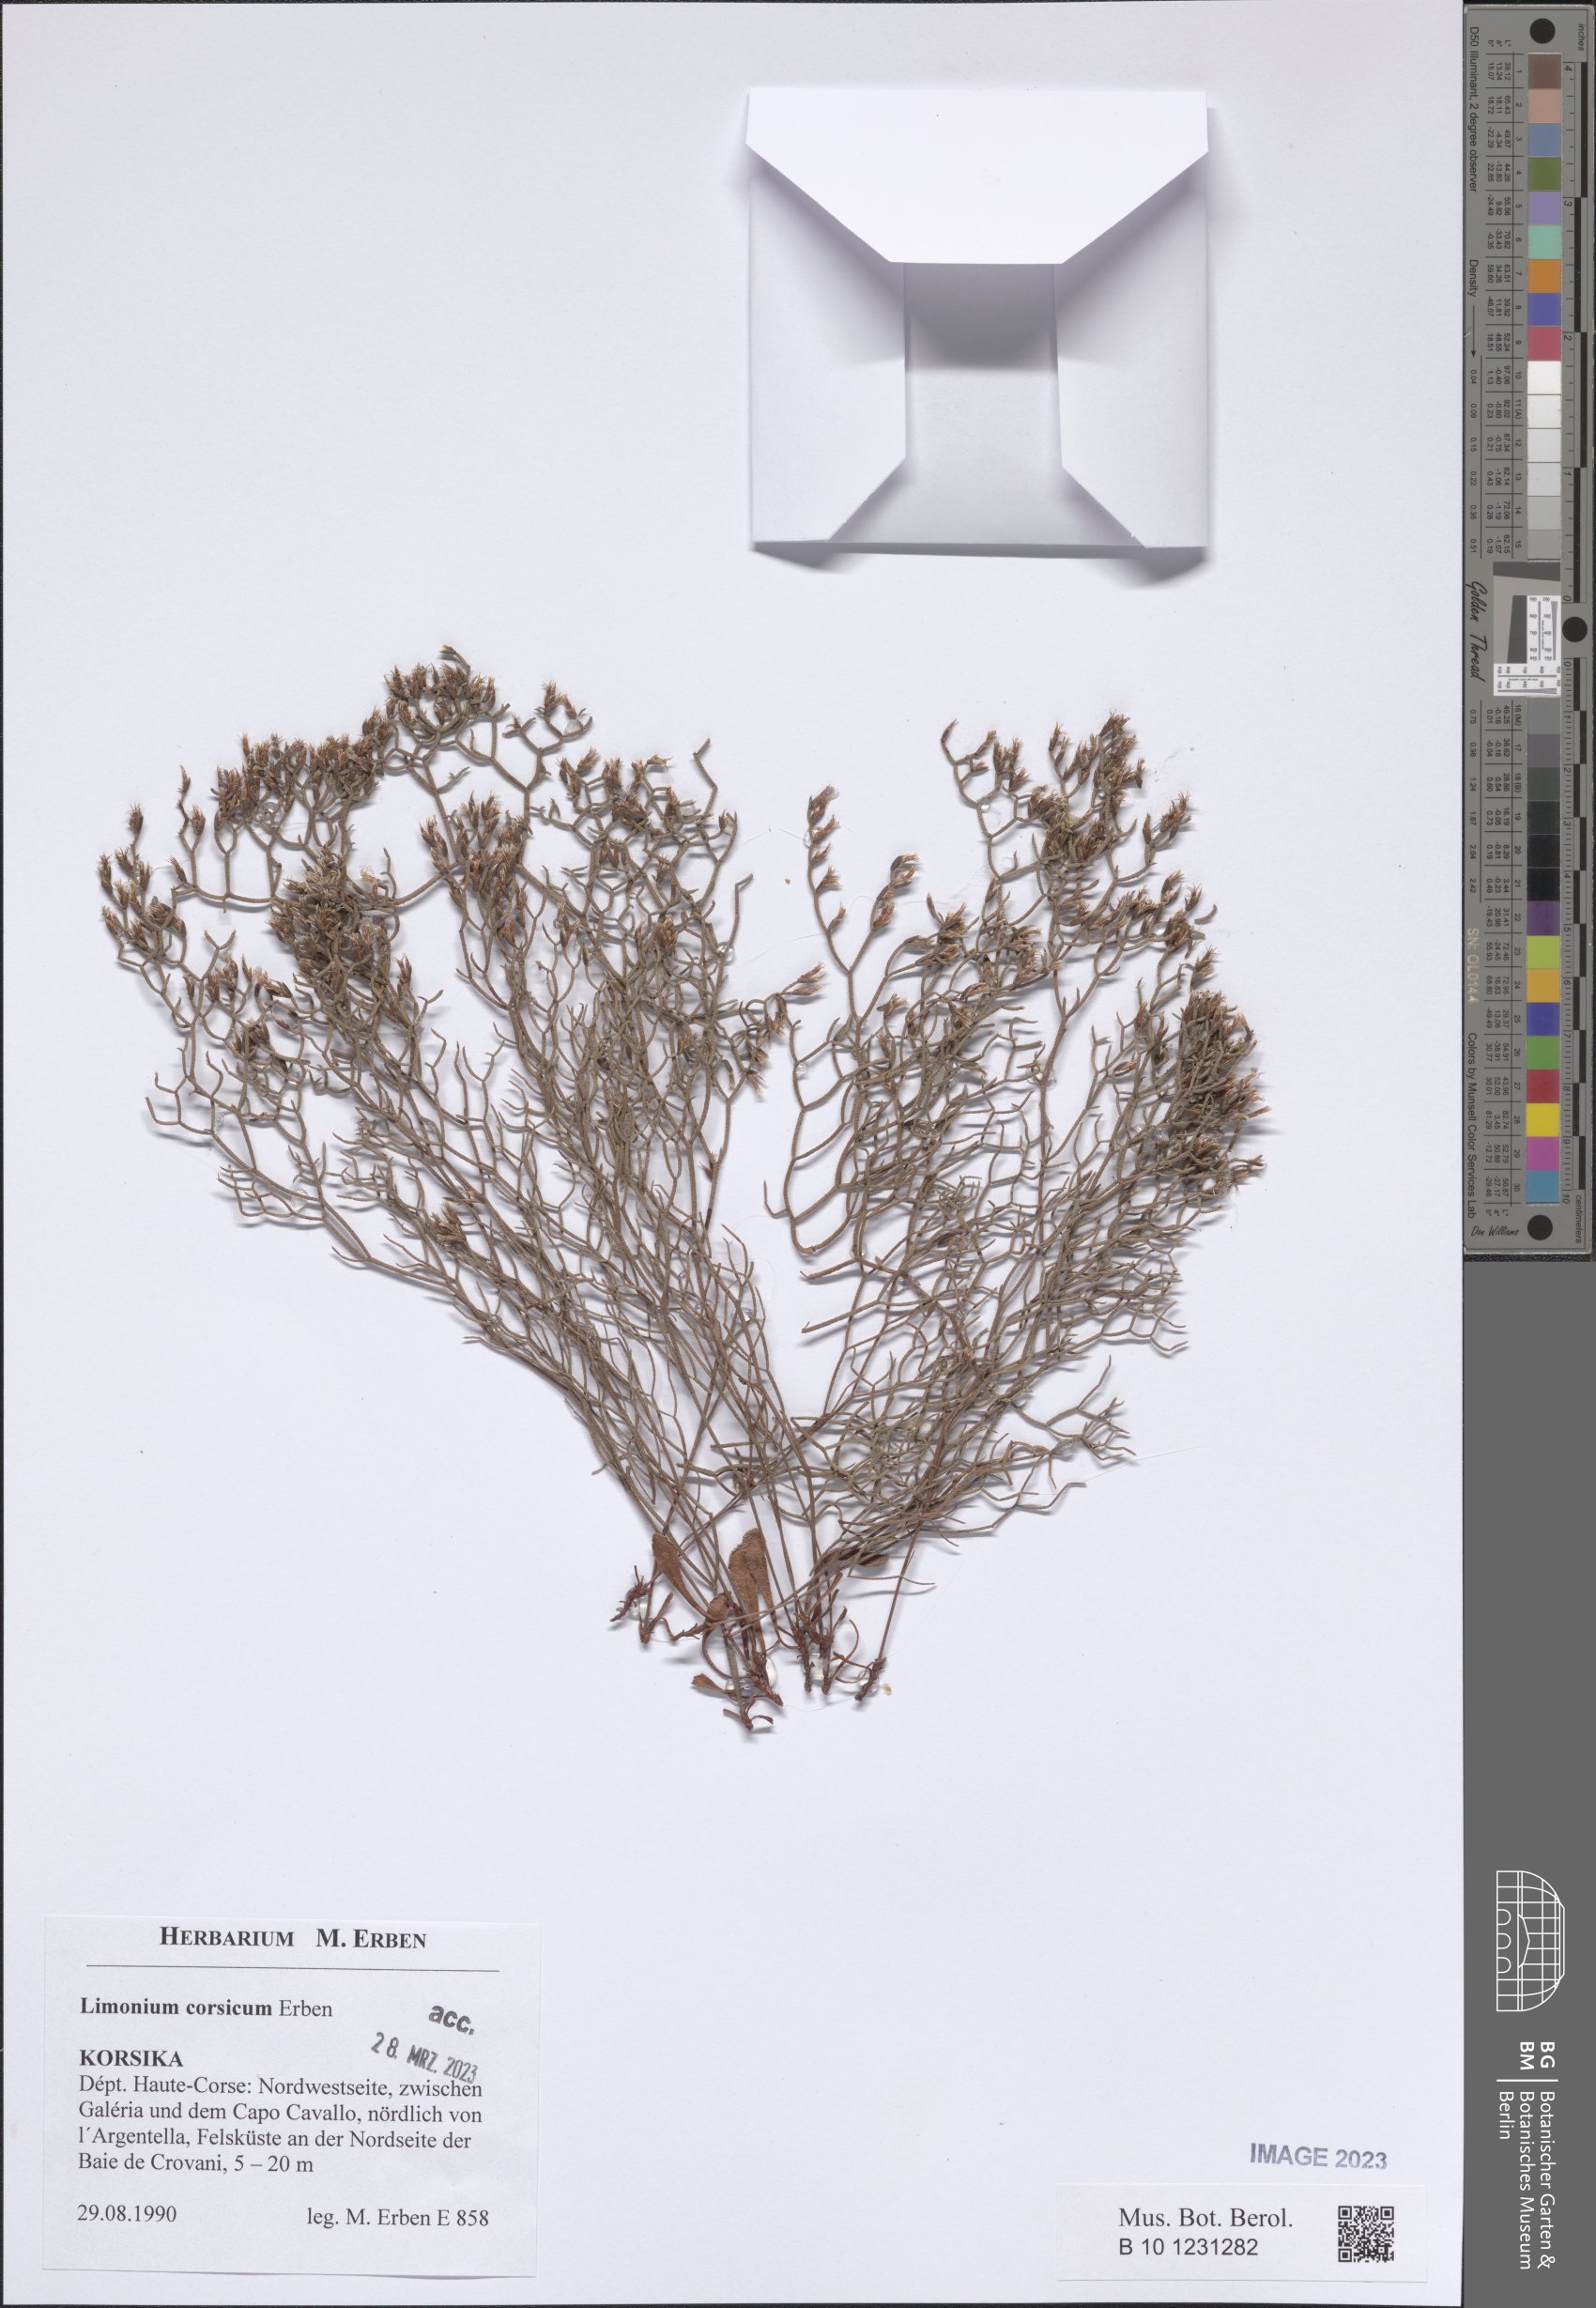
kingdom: Plantae
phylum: Tracheophyta
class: Magnoliopsida
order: Caryophyllales
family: Plumbaginaceae
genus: Limonium
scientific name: Limonium corsicum
